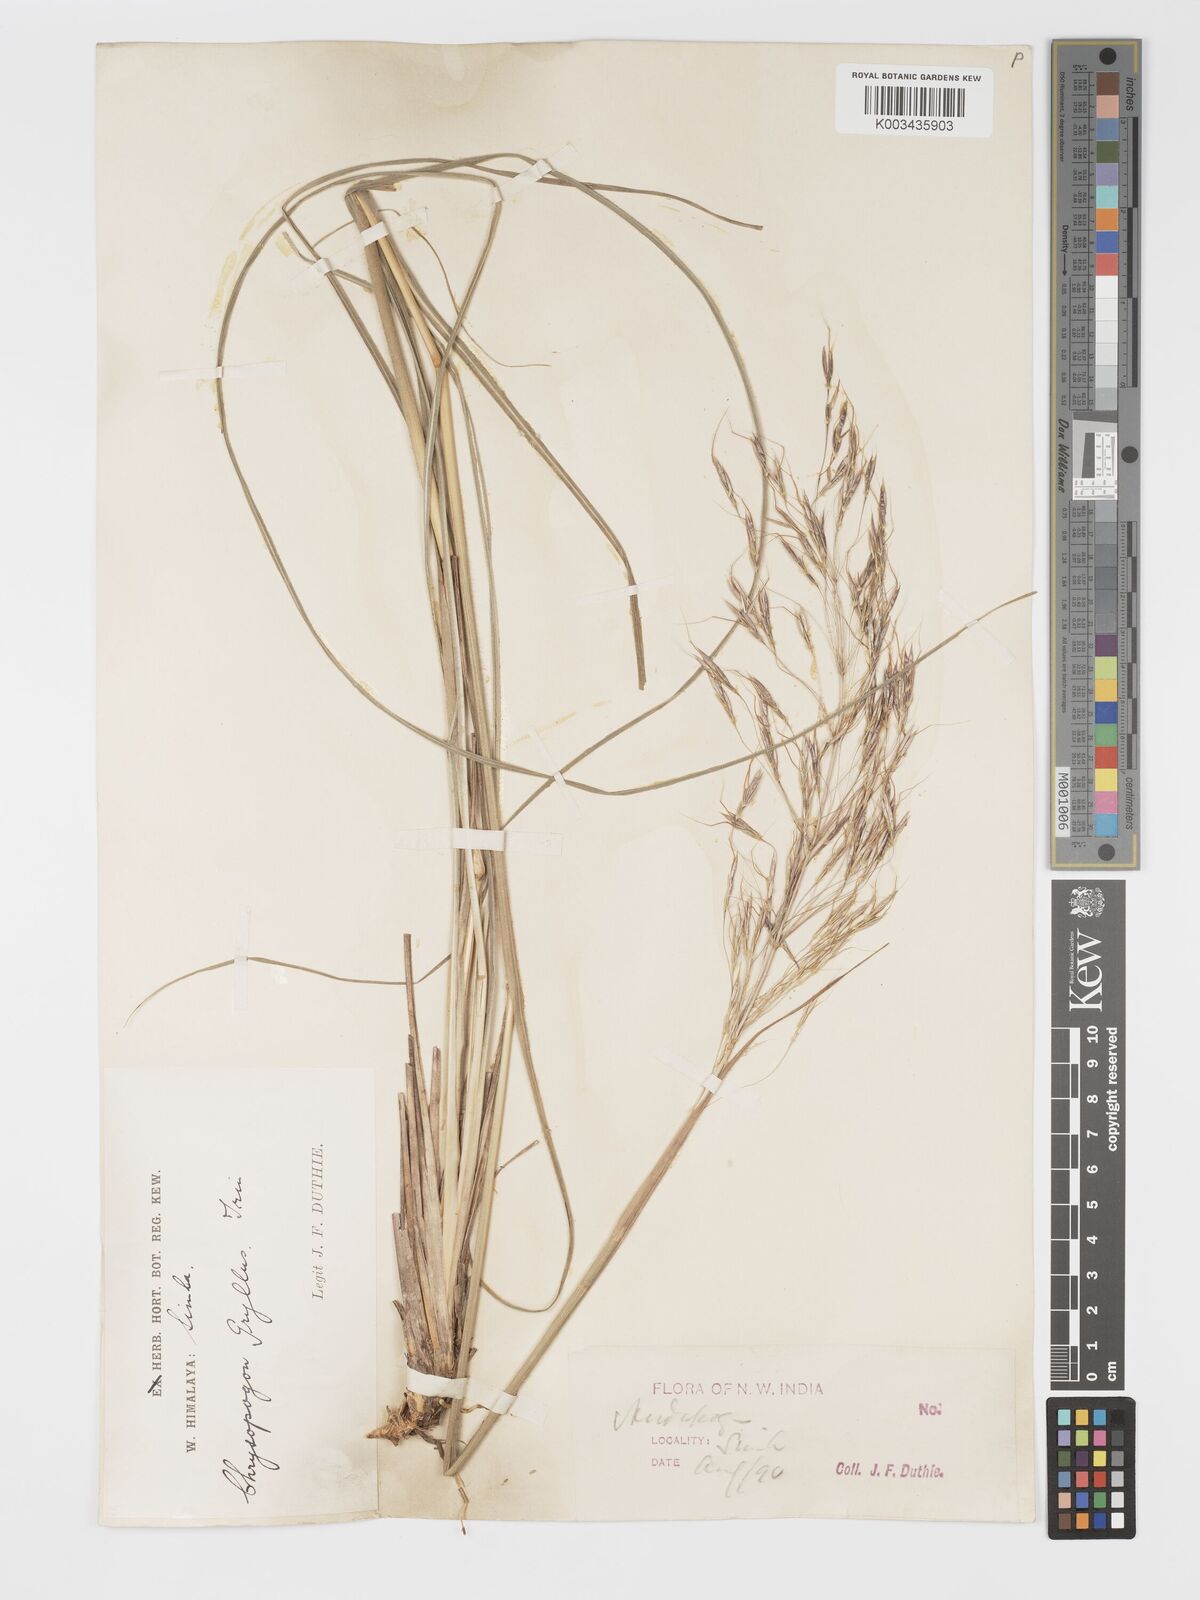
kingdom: Plantae
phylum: Tracheophyta
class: Liliopsida
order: Poales
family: Poaceae
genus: Chrysopogon
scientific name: Chrysopogon gryllus
